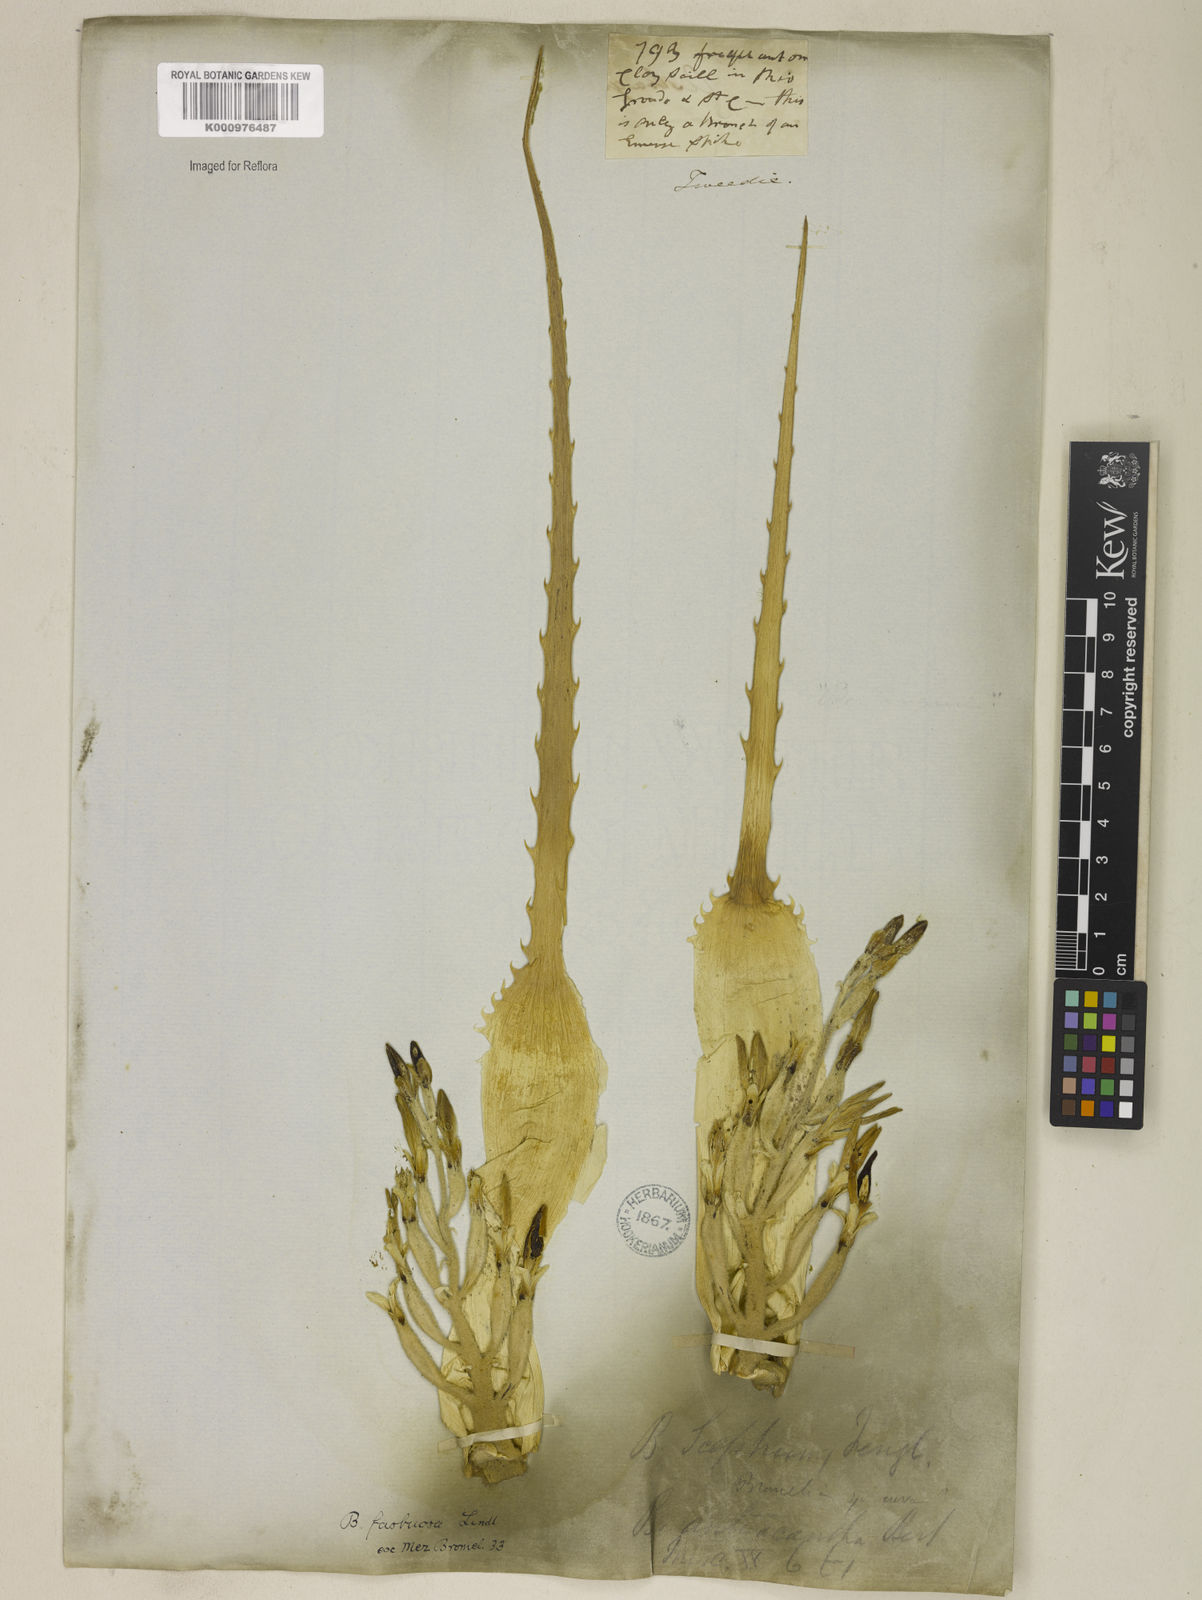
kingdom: Plantae
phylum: Tracheophyta
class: Liliopsida
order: Poales
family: Bromeliaceae
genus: Bromelia
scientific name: Bromelia antiacantha
